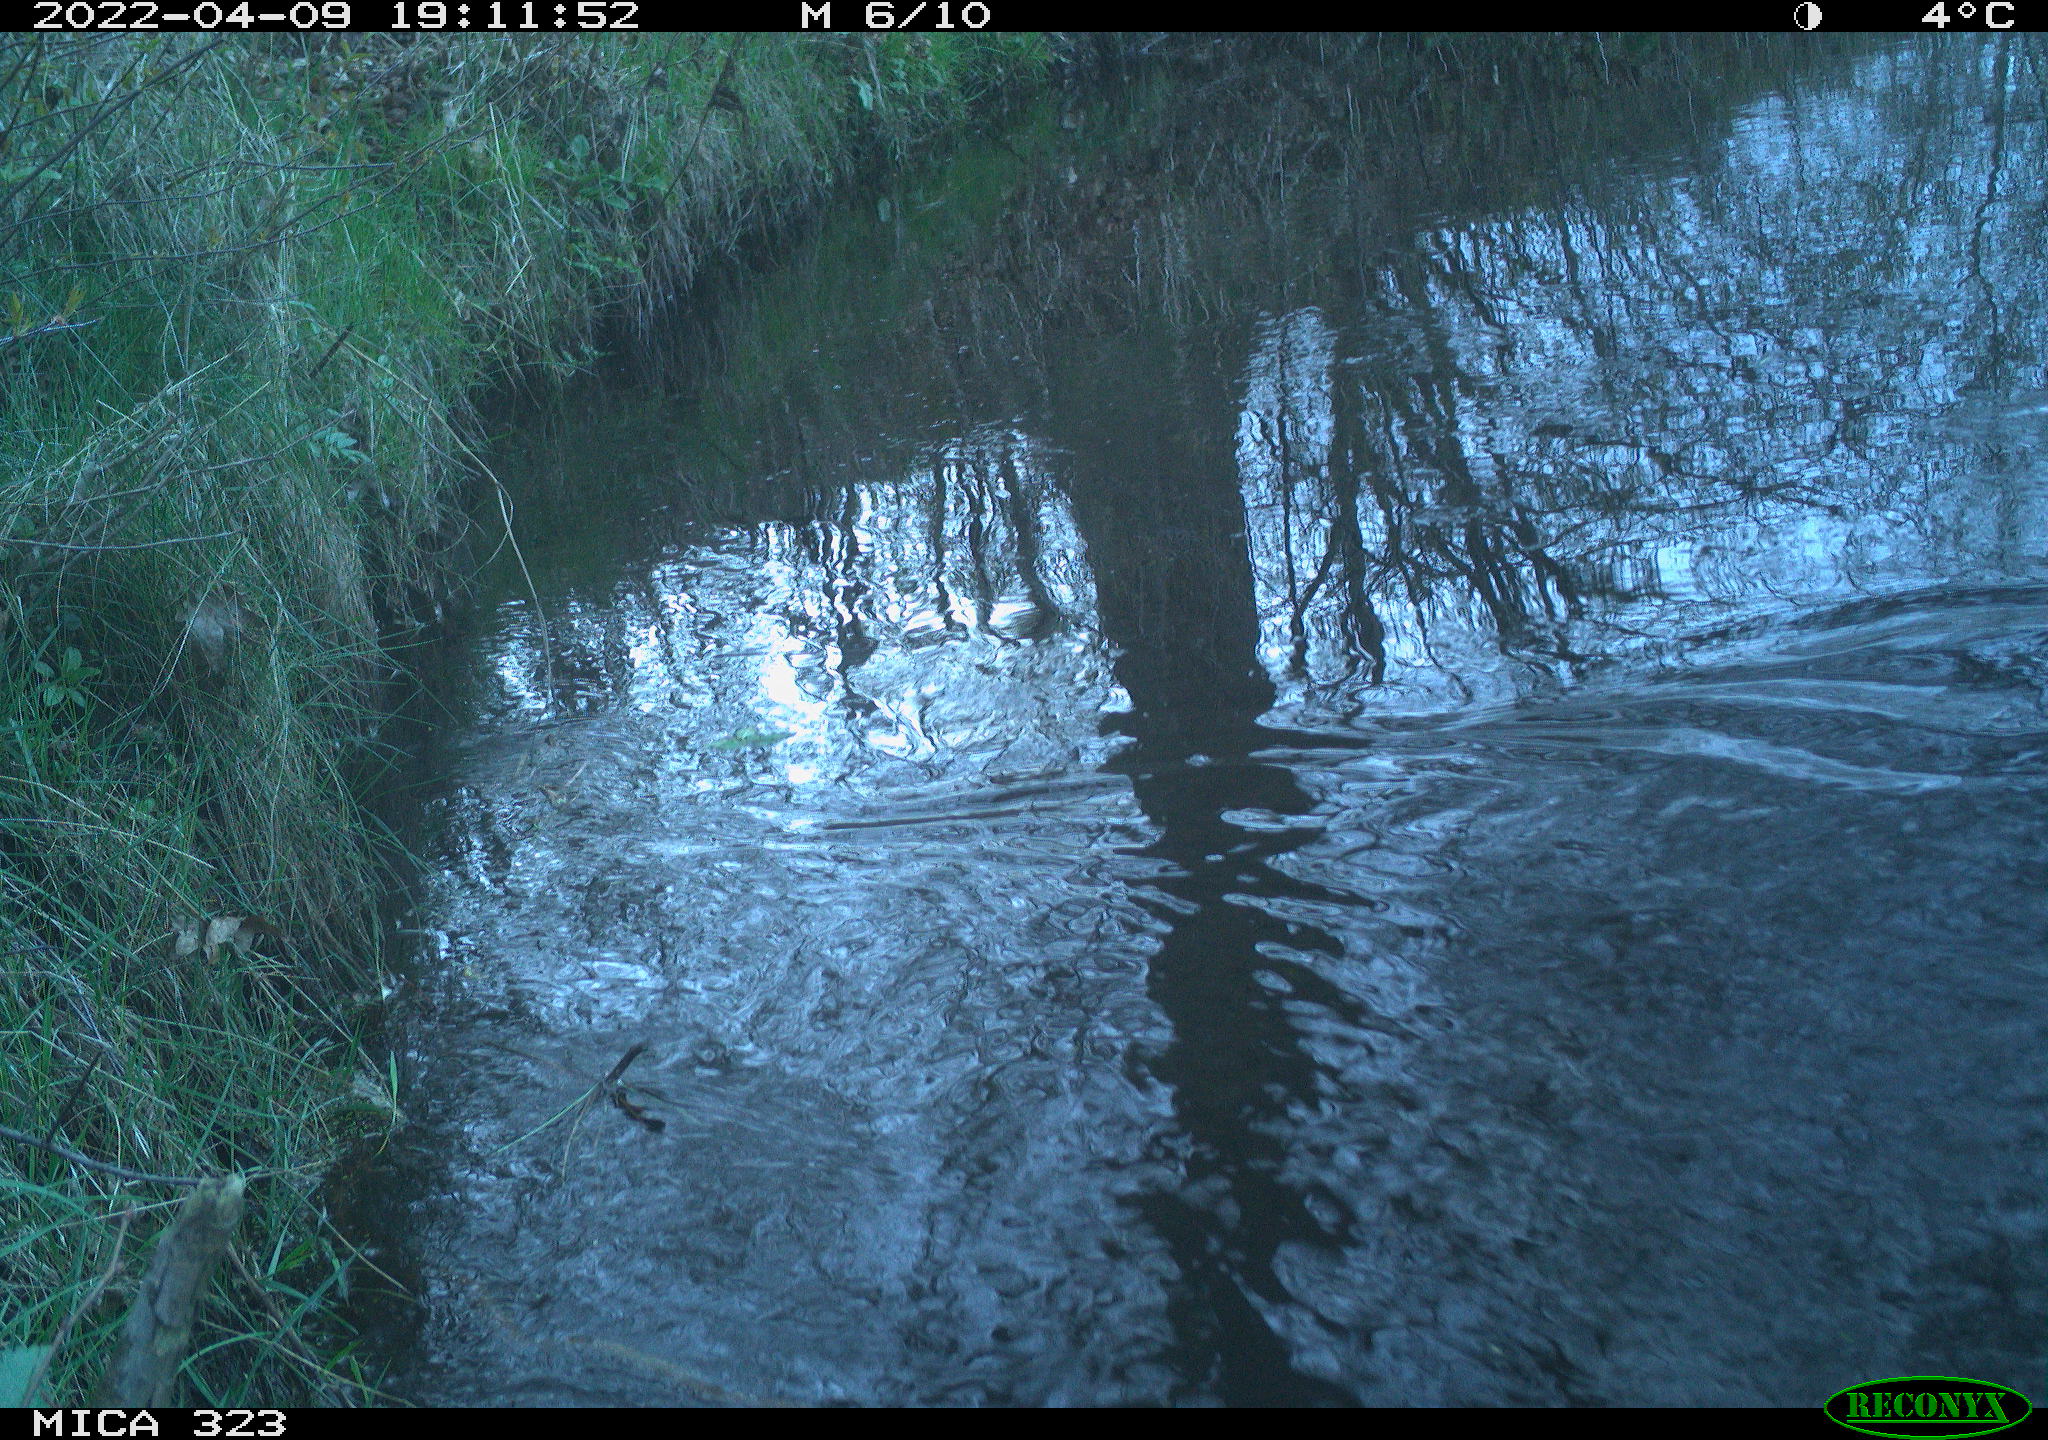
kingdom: Animalia
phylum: Chordata
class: Aves
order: Gruiformes
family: Rallidae
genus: Gallinula
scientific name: Gallinula chloropus
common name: Common moorhen
